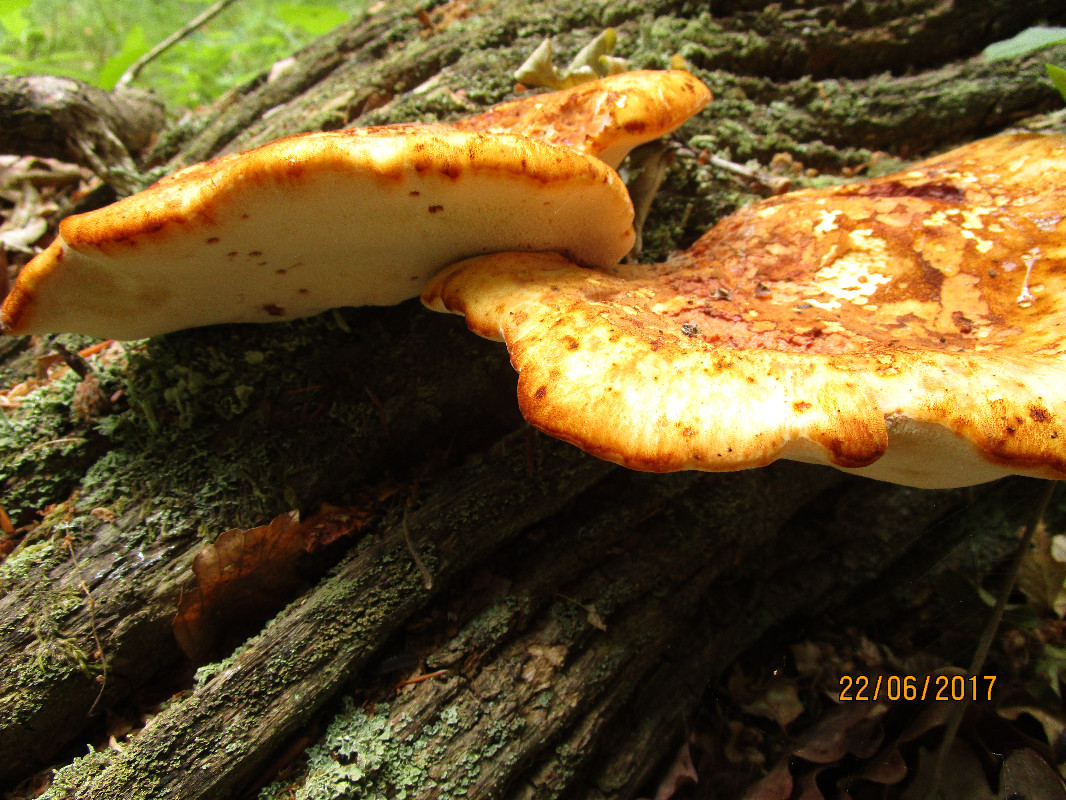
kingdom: Fungi
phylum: Basidiomycota
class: Agaricomycetes
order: Polyporales
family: Fomitopsidaceae
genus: Buglossoporus
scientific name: Buglossoporus quercinus
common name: egetunge
